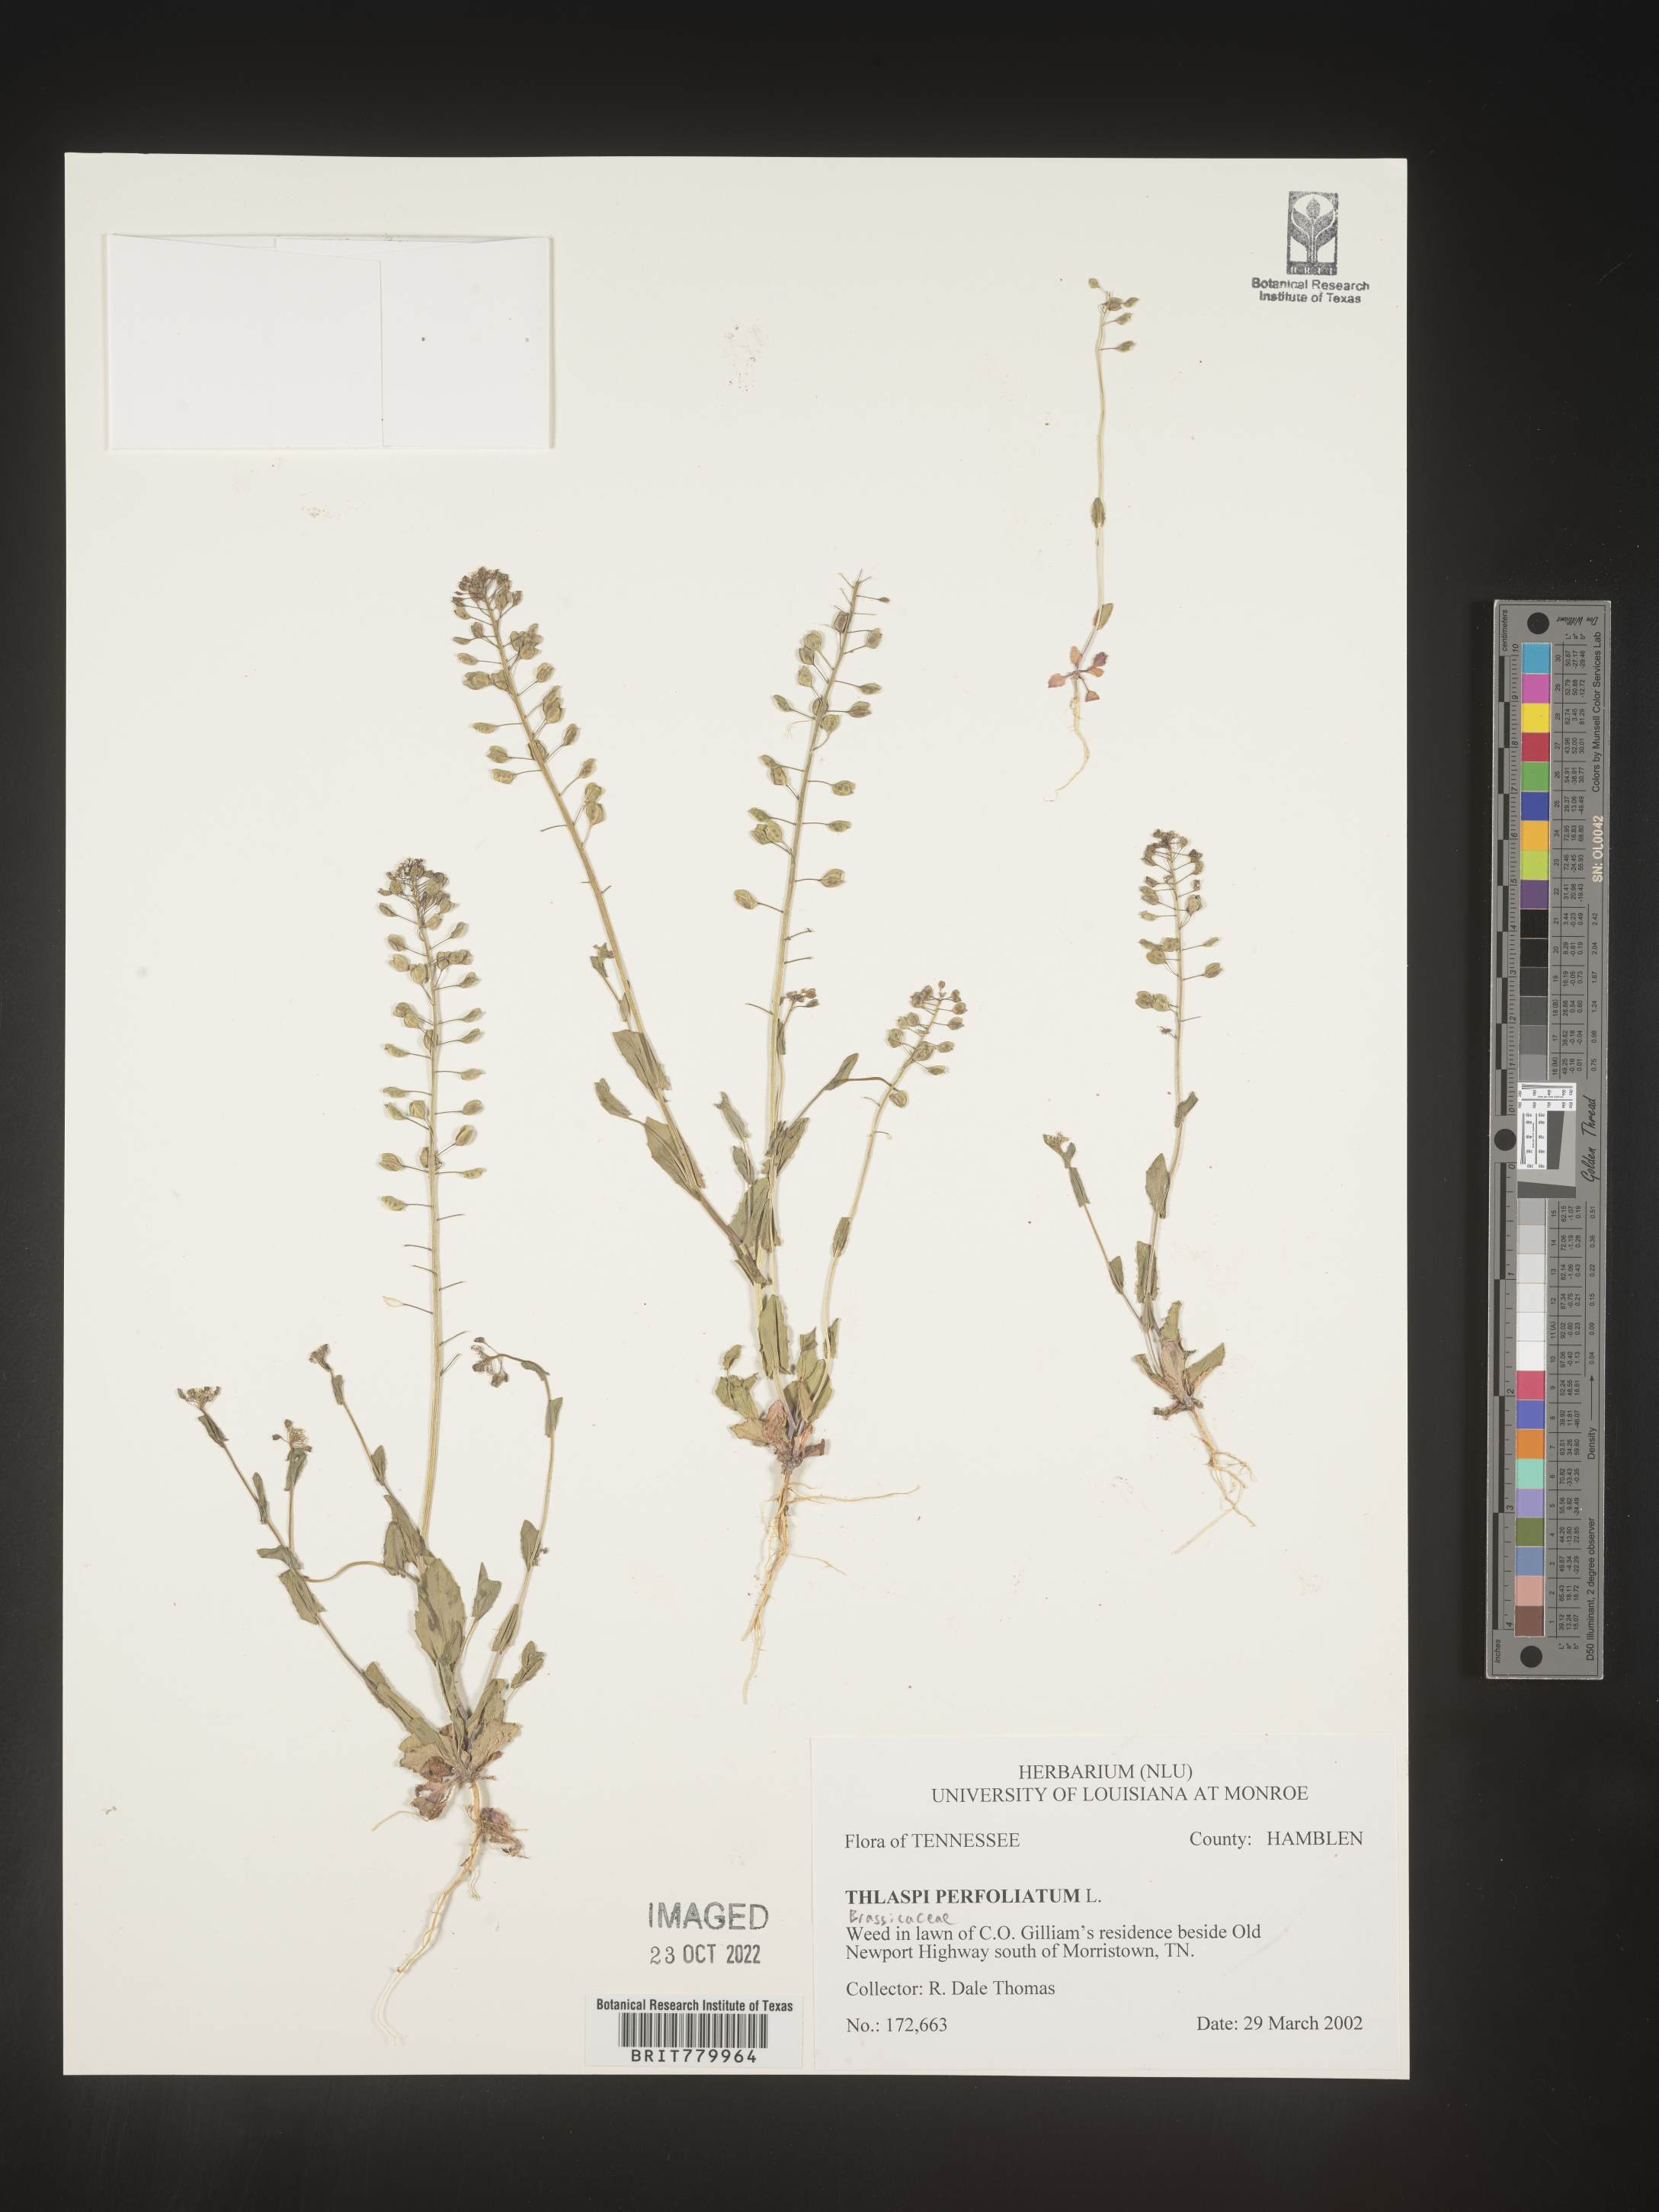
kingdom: Plantae
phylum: Tracheophyta
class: Magnoliopsida
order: Brassicales
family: Brassicaceae
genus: Thlaspi
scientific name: Thlaspi
